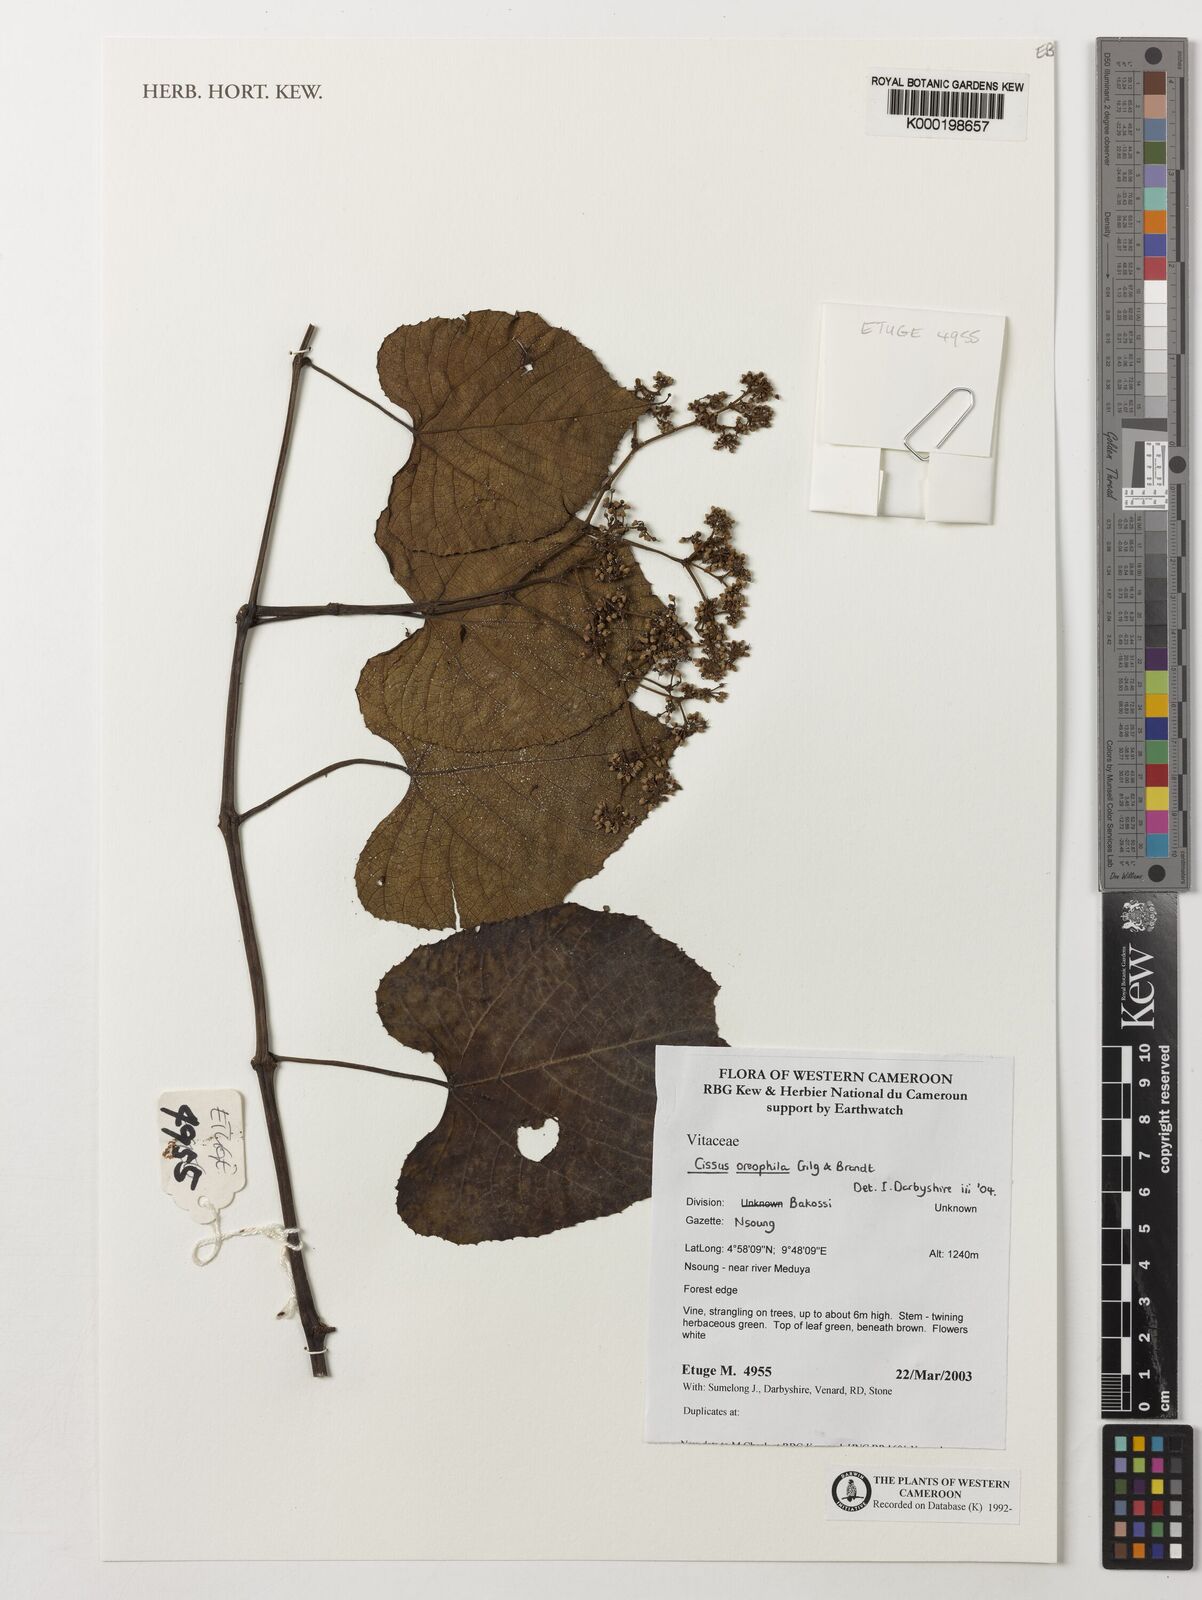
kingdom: Plantae
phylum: Tracheophyta
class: Magnoliopsida
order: Vitales
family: Vitaceae
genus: Cissus
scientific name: Cissus oreophila
